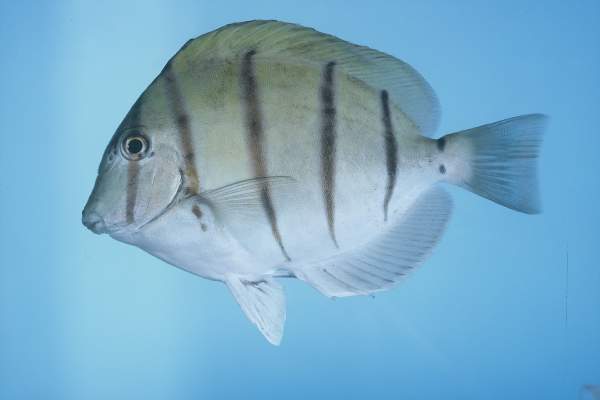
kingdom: Animalia
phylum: Chordata
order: Perciformes
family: Acanthuridae
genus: Acanthurus
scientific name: Acanthurus triostegus
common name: Convict surgeonfish
